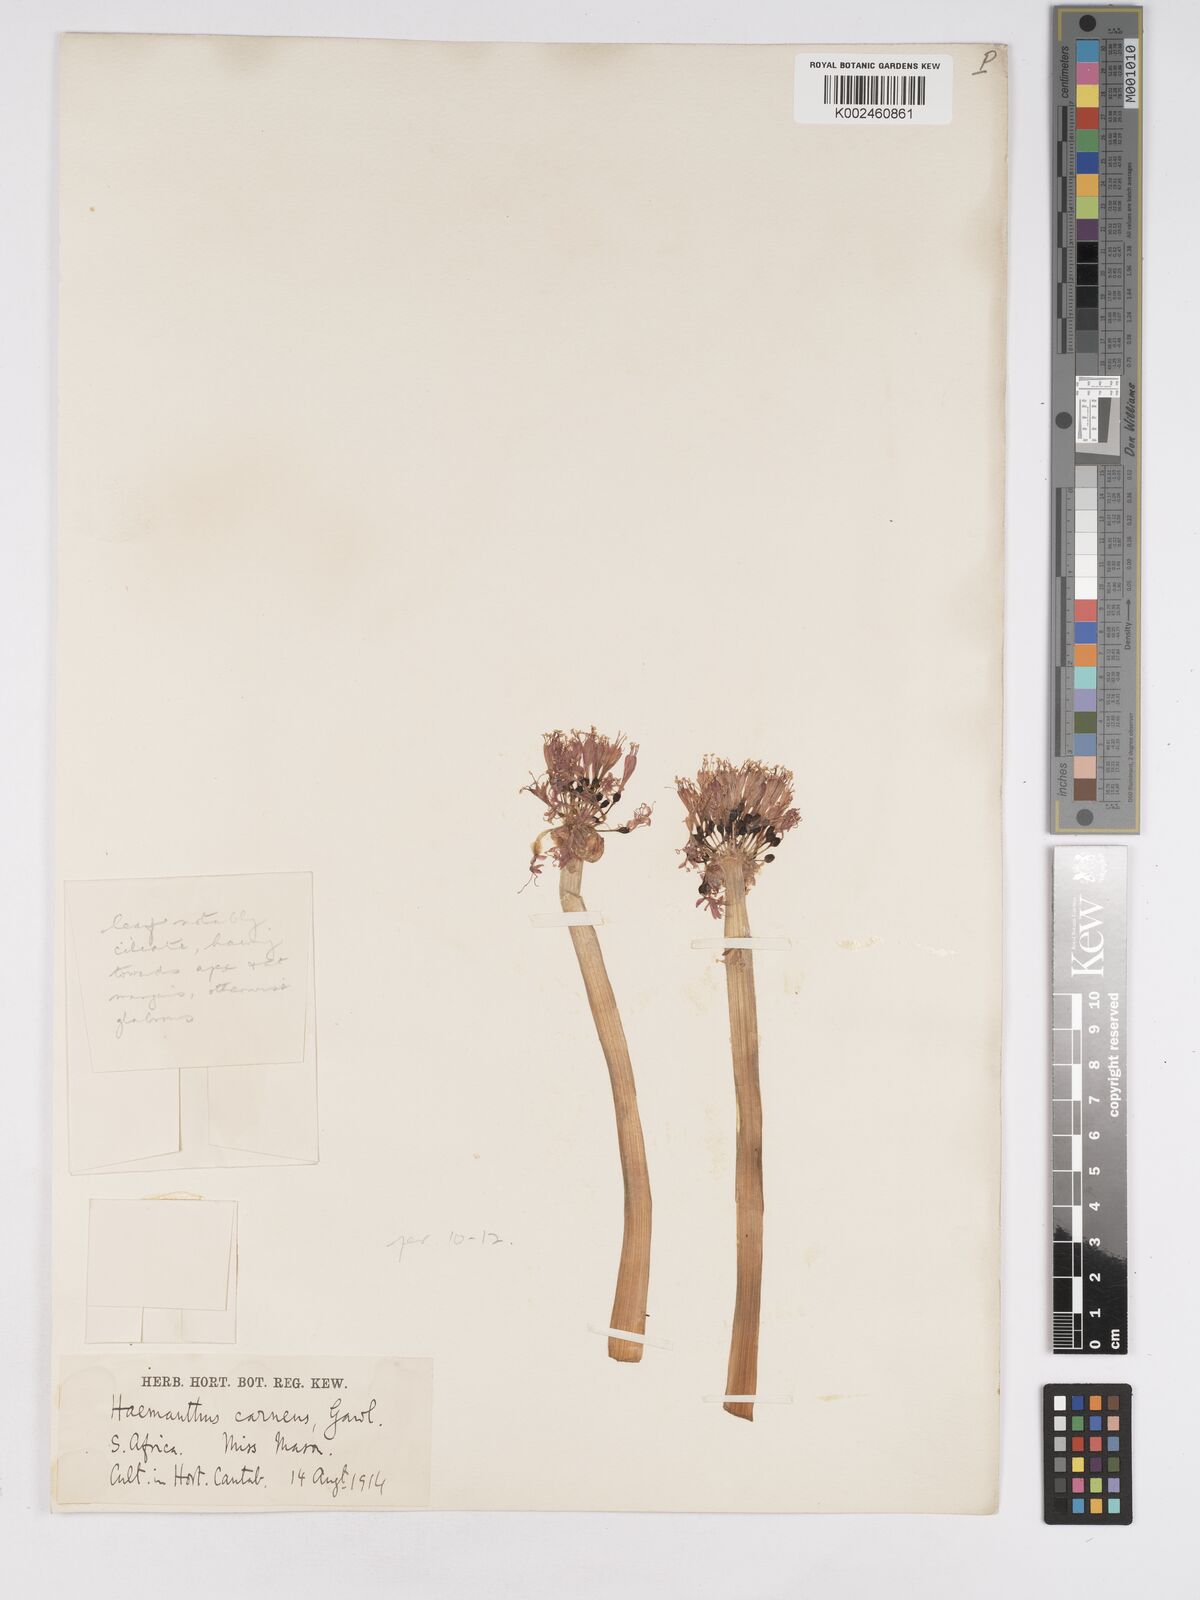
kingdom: Plantae
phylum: Tracheophyta
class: Liliopsida
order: Asparagales
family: Amaryllidaceae
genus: Haemanthus
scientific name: Haemanthus humilis
